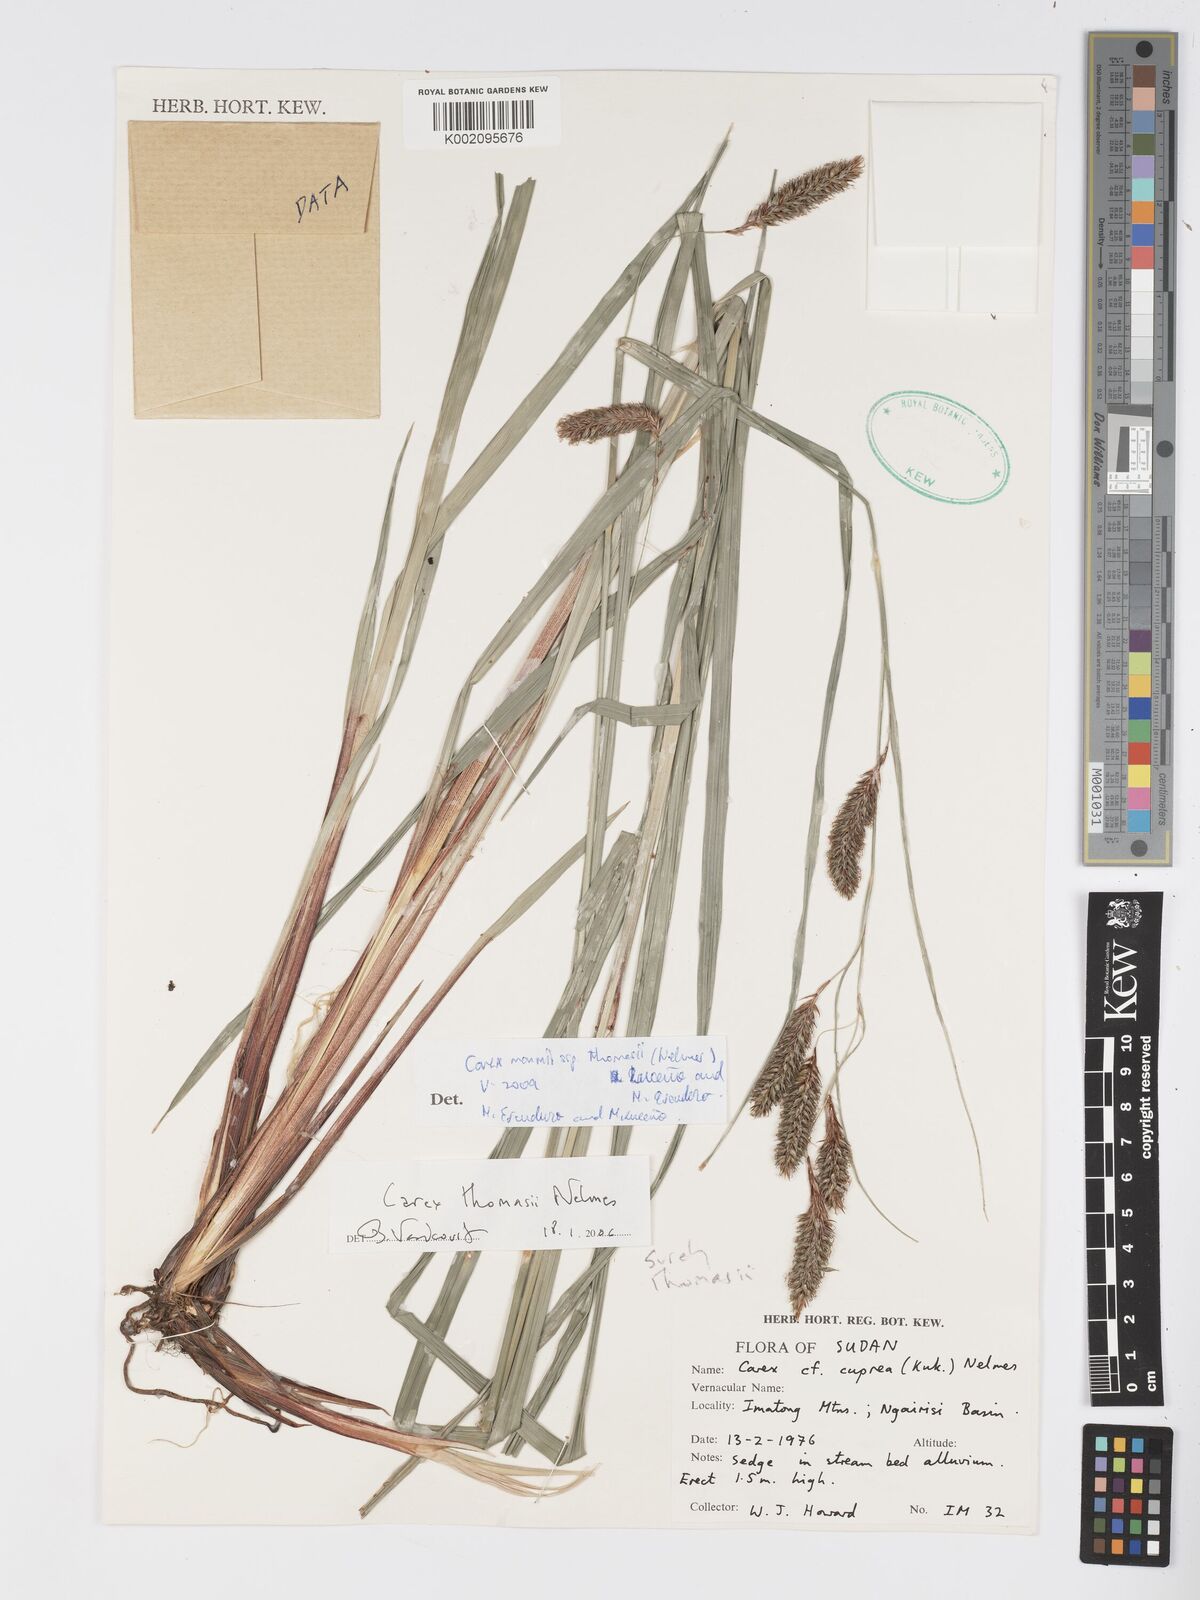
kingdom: Plantae
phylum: Tracheophyta
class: Liliopsida
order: Poales
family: Cyperaceae
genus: Carex
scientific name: Carex mannii
